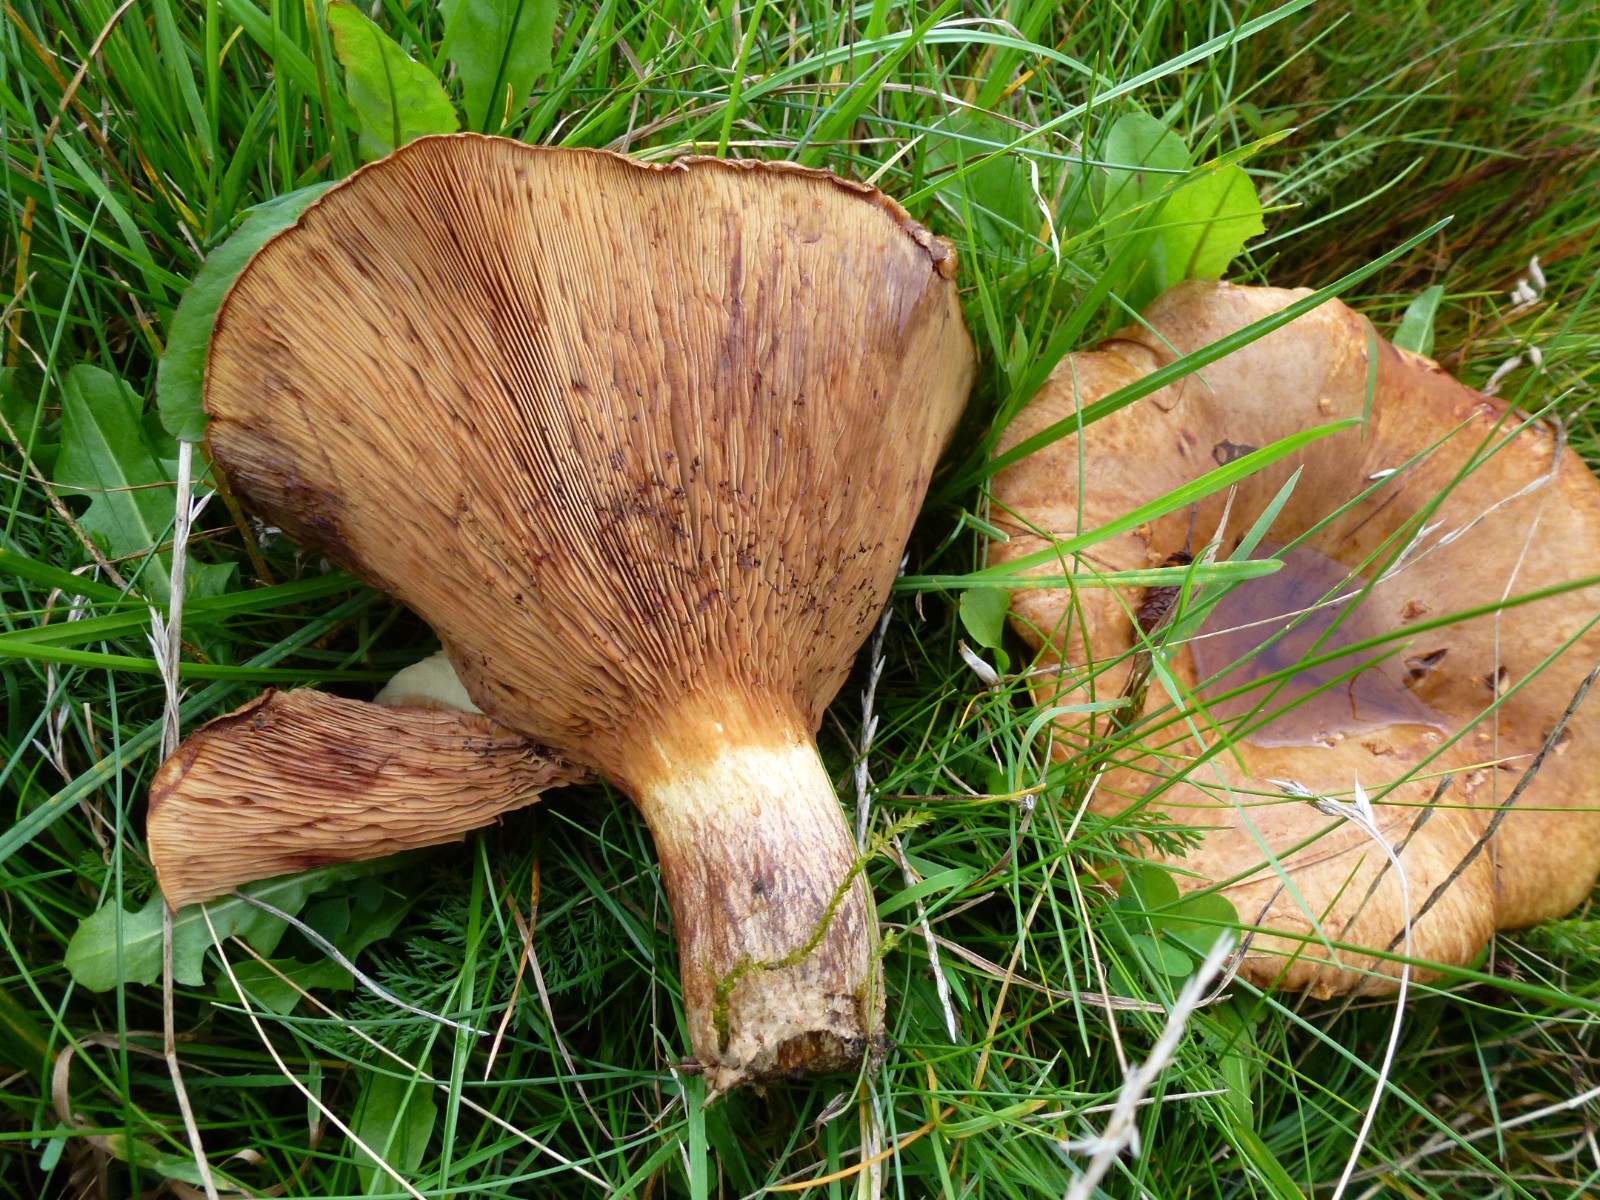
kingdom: Fungi
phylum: Basidiomycota
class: Agaricomycetes
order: Boletales
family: Paxillaceae
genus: Paxillus
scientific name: Paxillus
